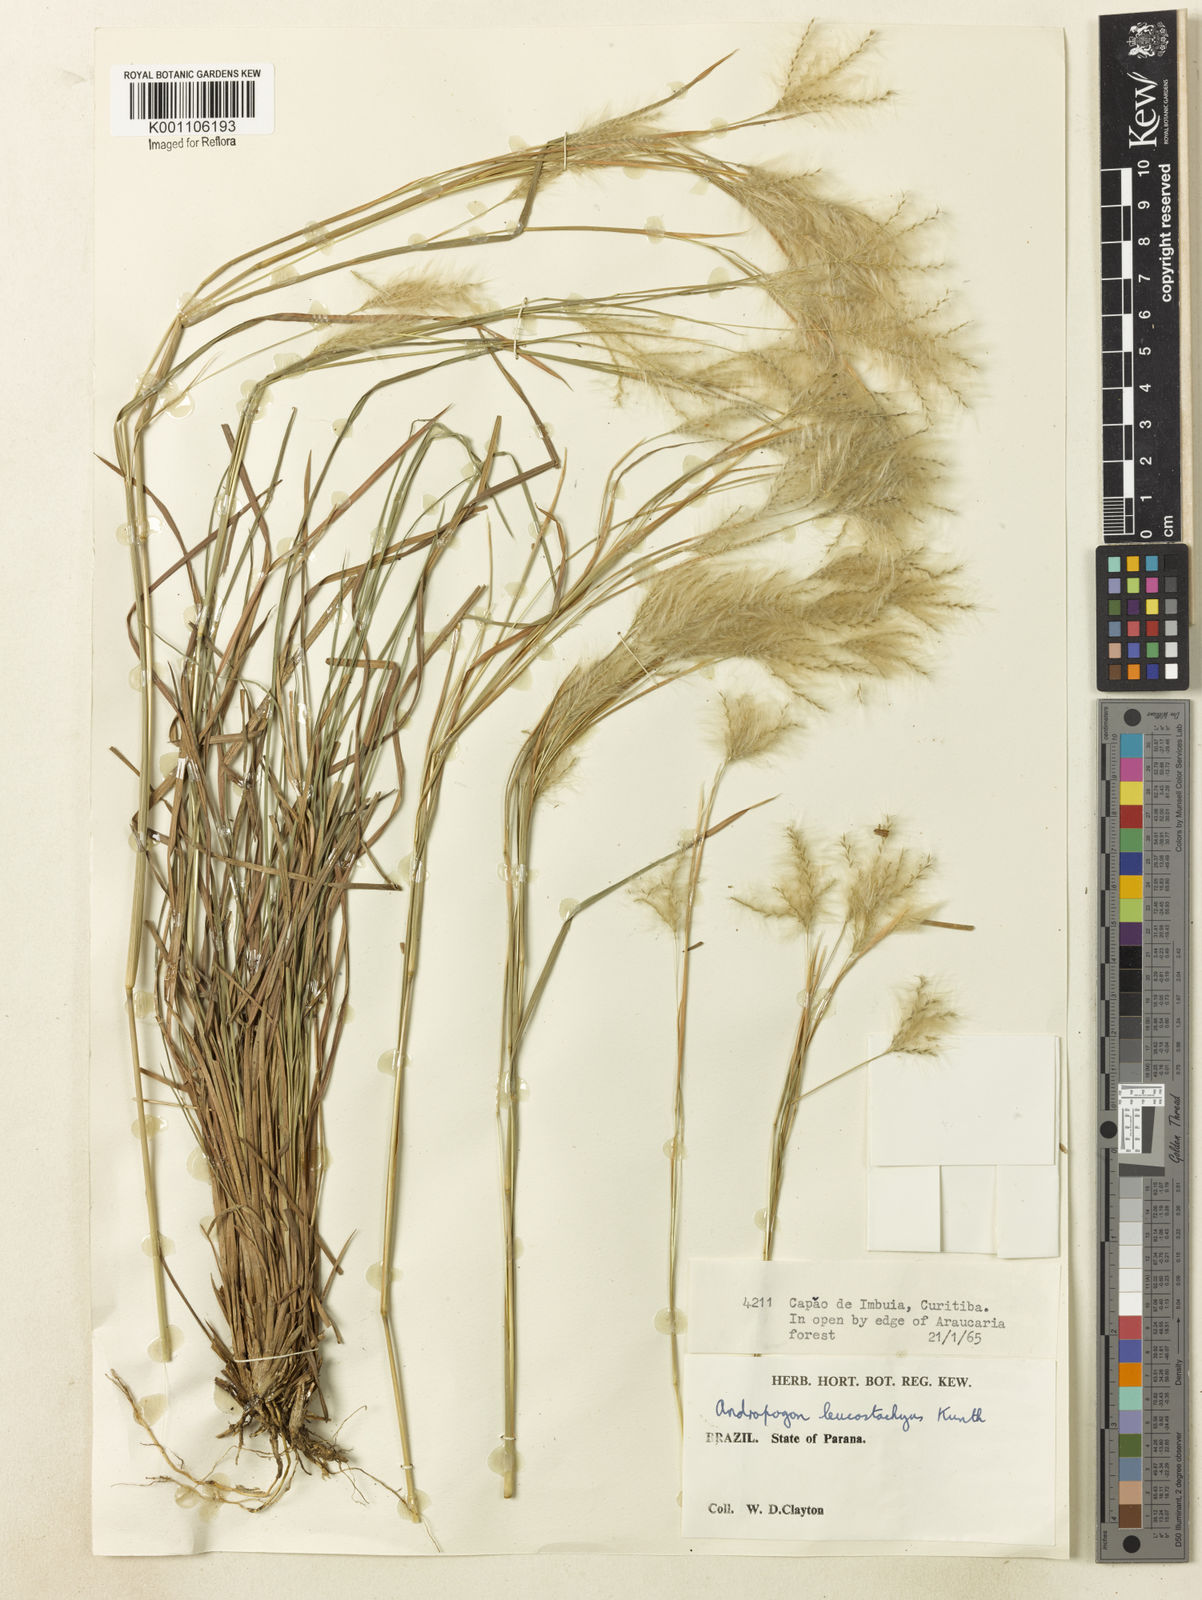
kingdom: Plantae
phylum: Tracheophyta
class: Liliopsida
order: Poales
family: Poaceae
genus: Andropogon
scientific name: Andropogon leucostachyus
